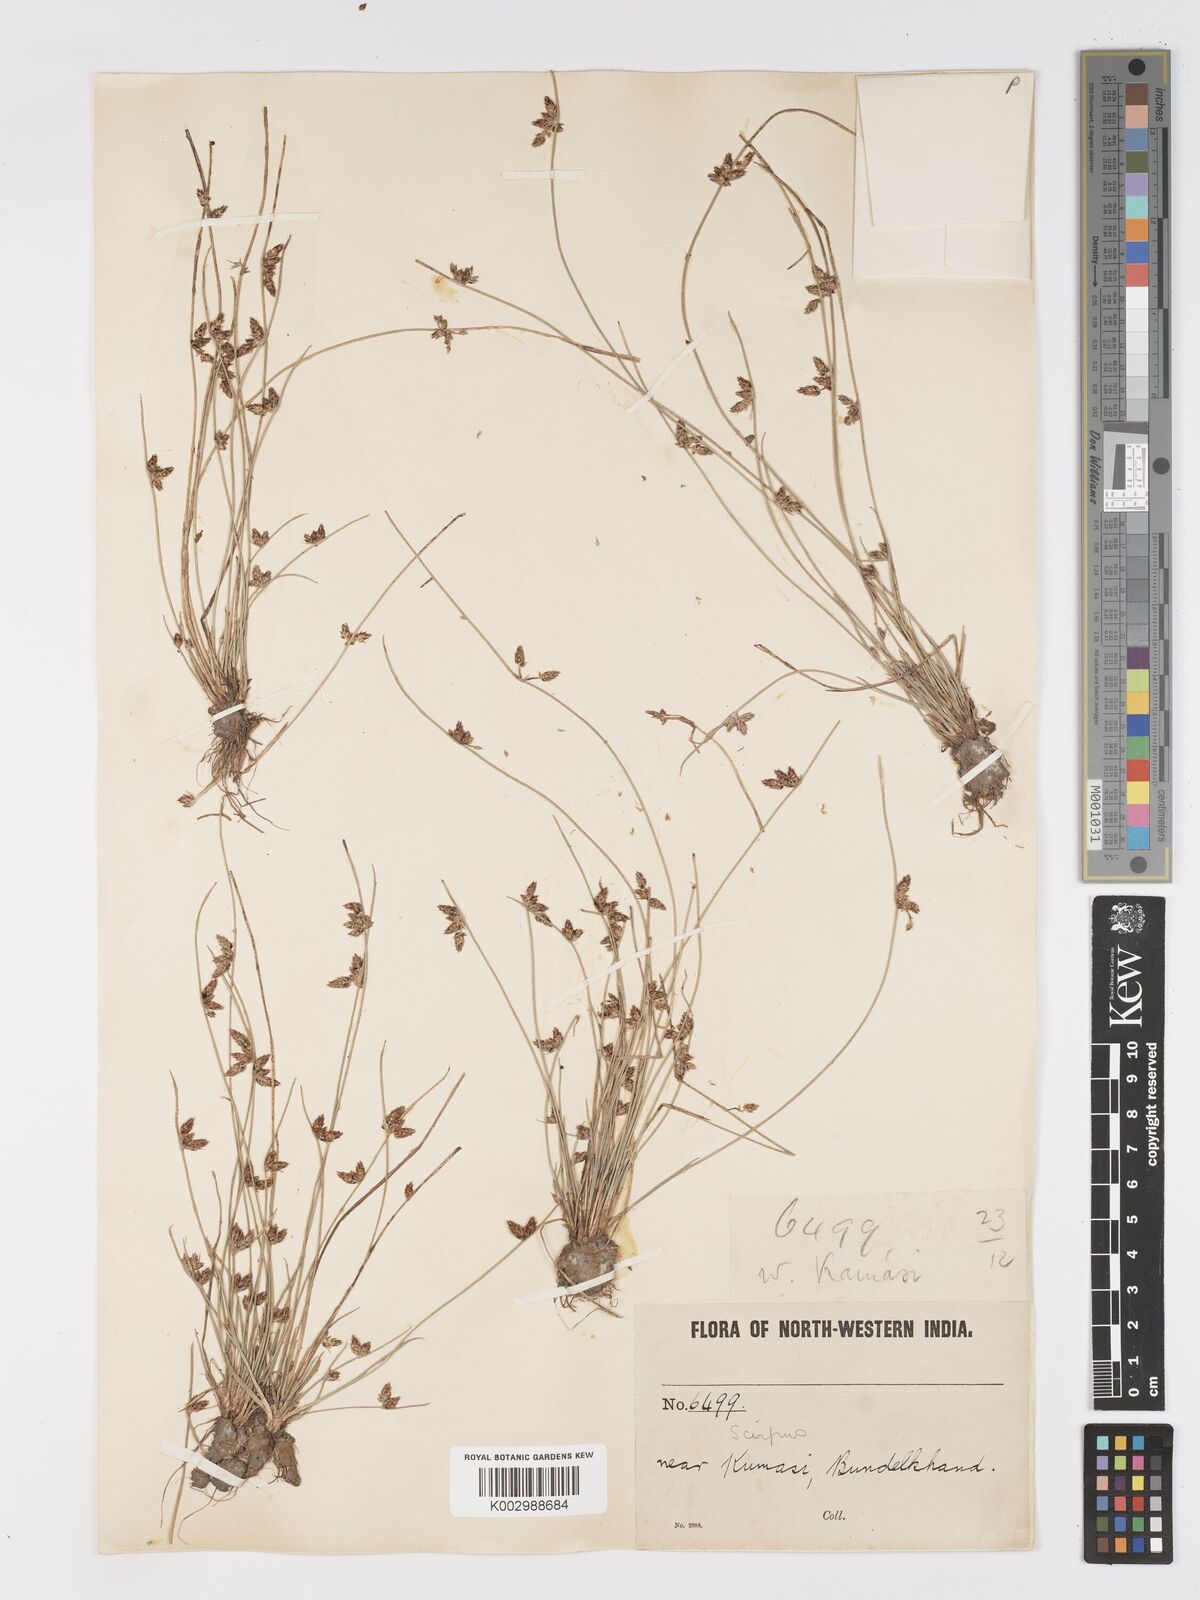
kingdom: Plantae
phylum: Tracheophyta
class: Liliopsida
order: Poales
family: Cyperaceae
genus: Schoenoplectiella
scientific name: Schoenoplectiella lateriflora
